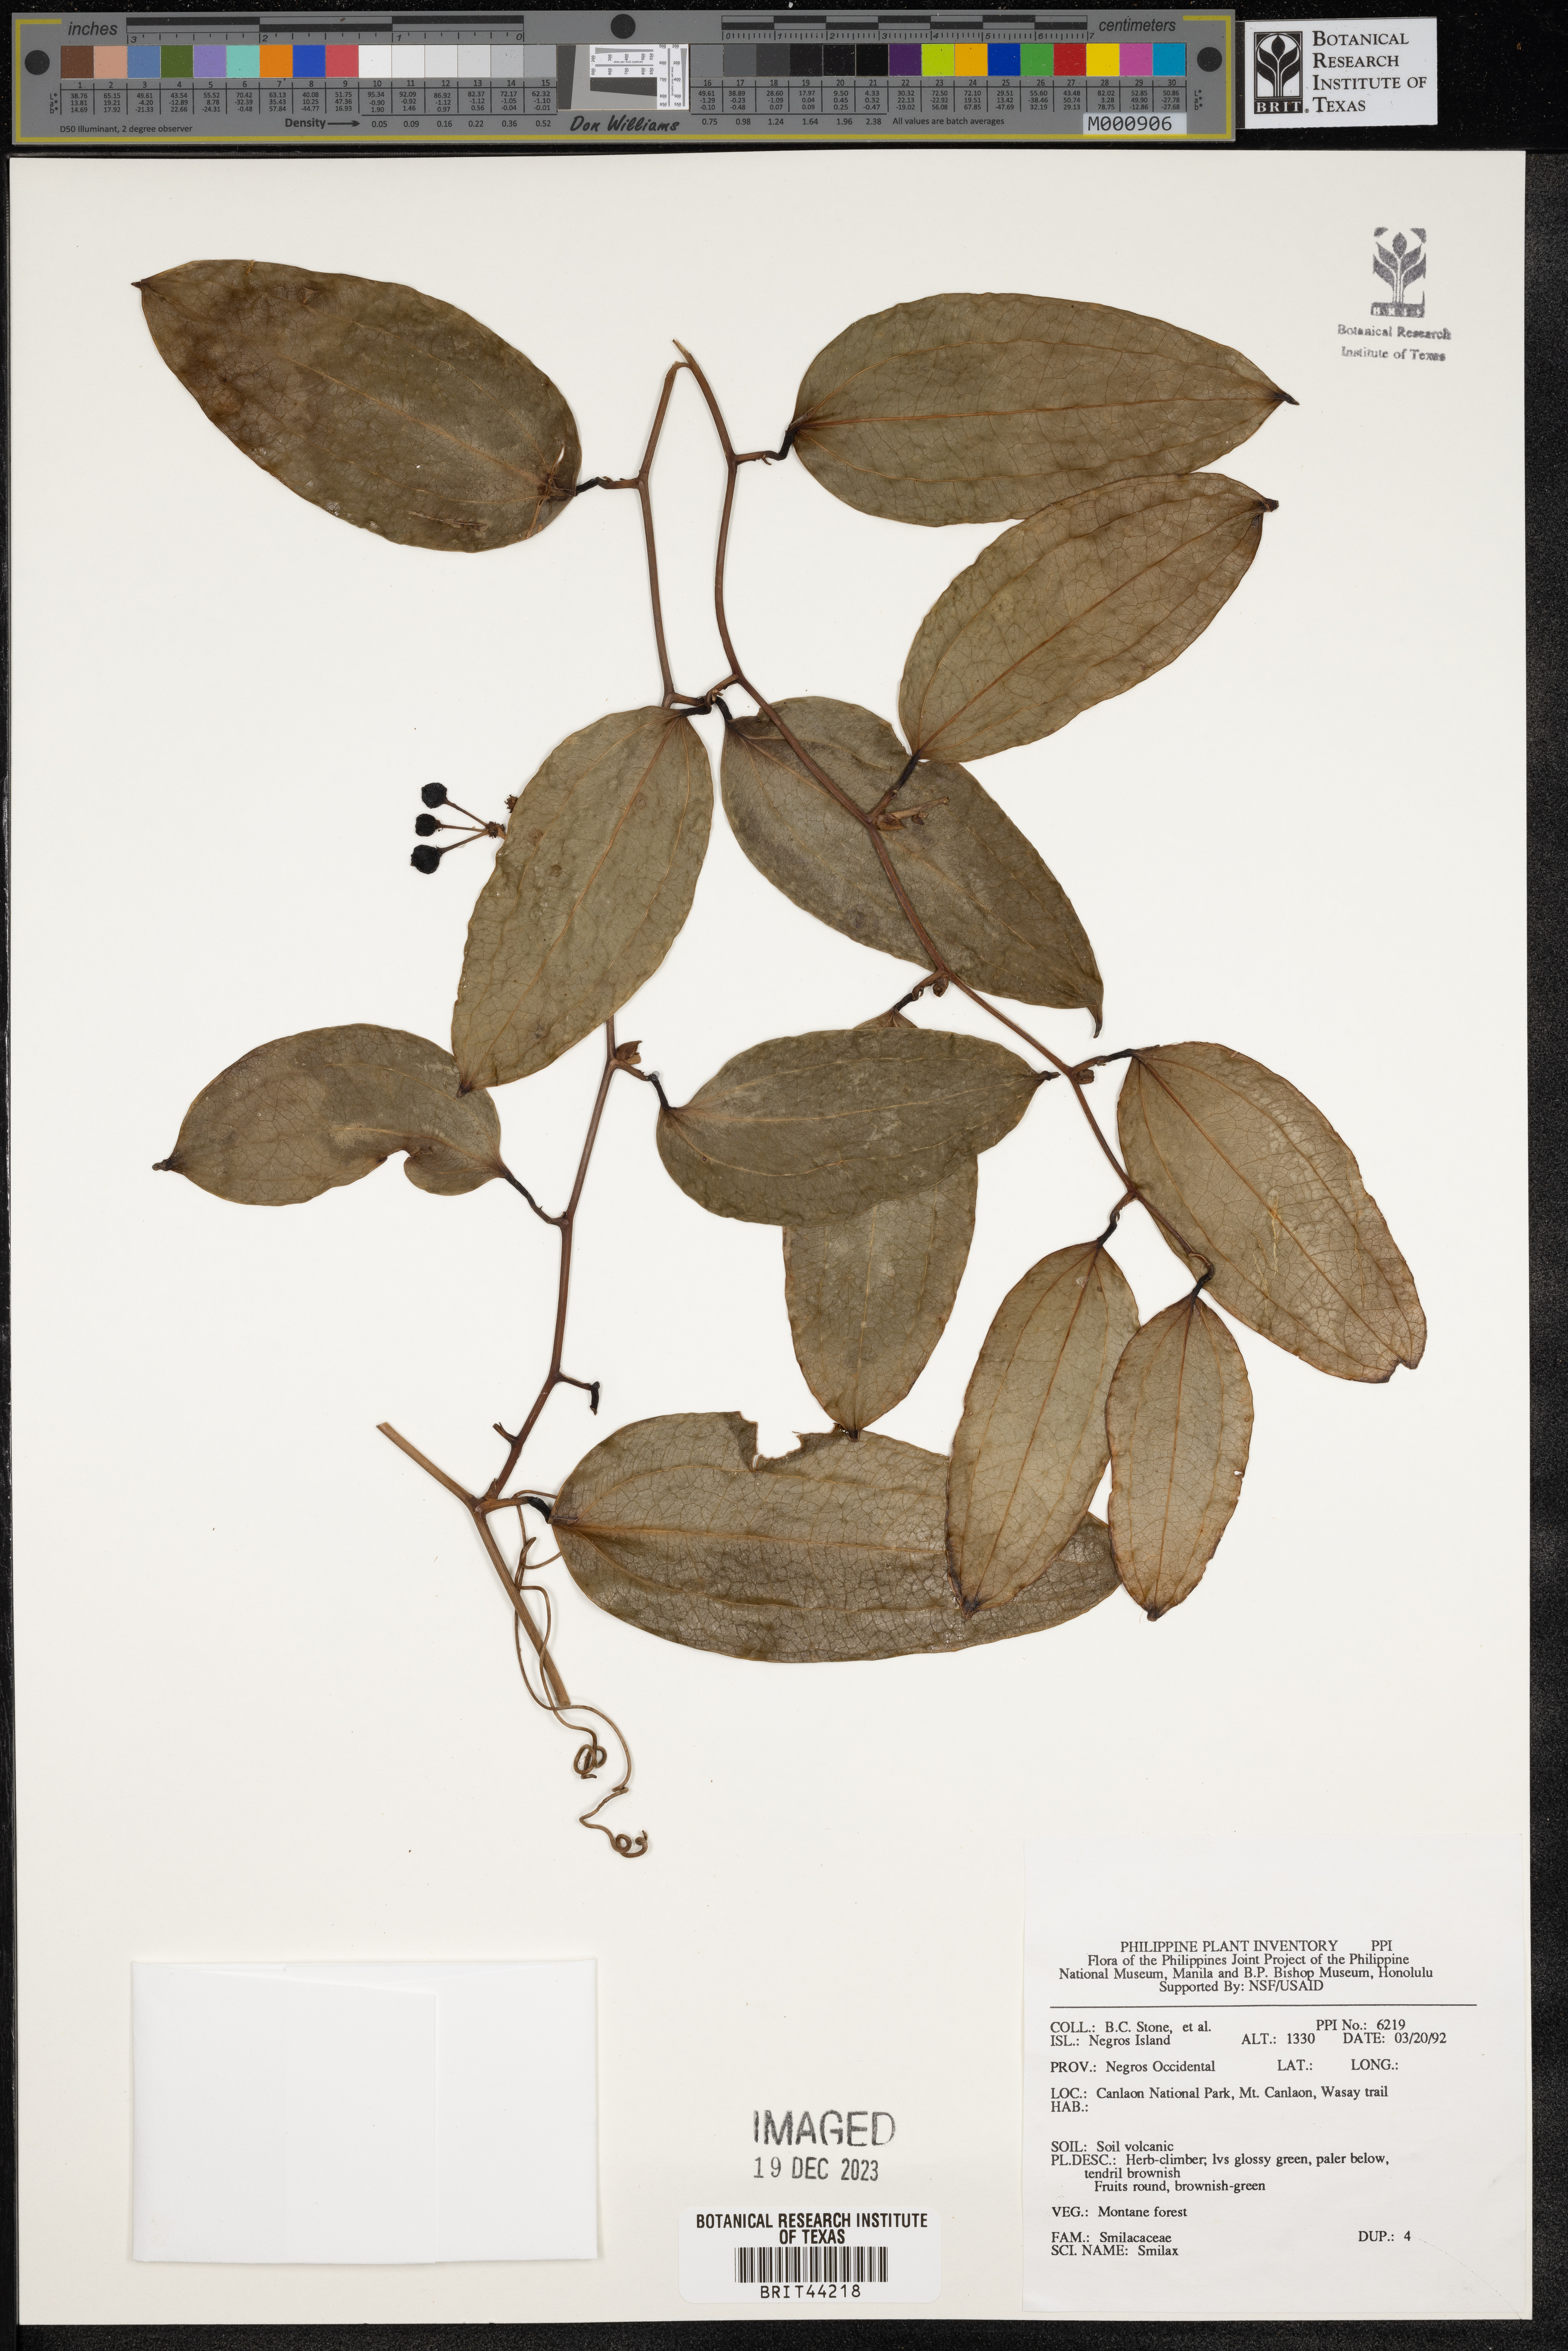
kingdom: Plantae
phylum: Tracheophyta
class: Liliopsida
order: Liliales
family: Smilacaceae
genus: Smilax
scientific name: Smilax
